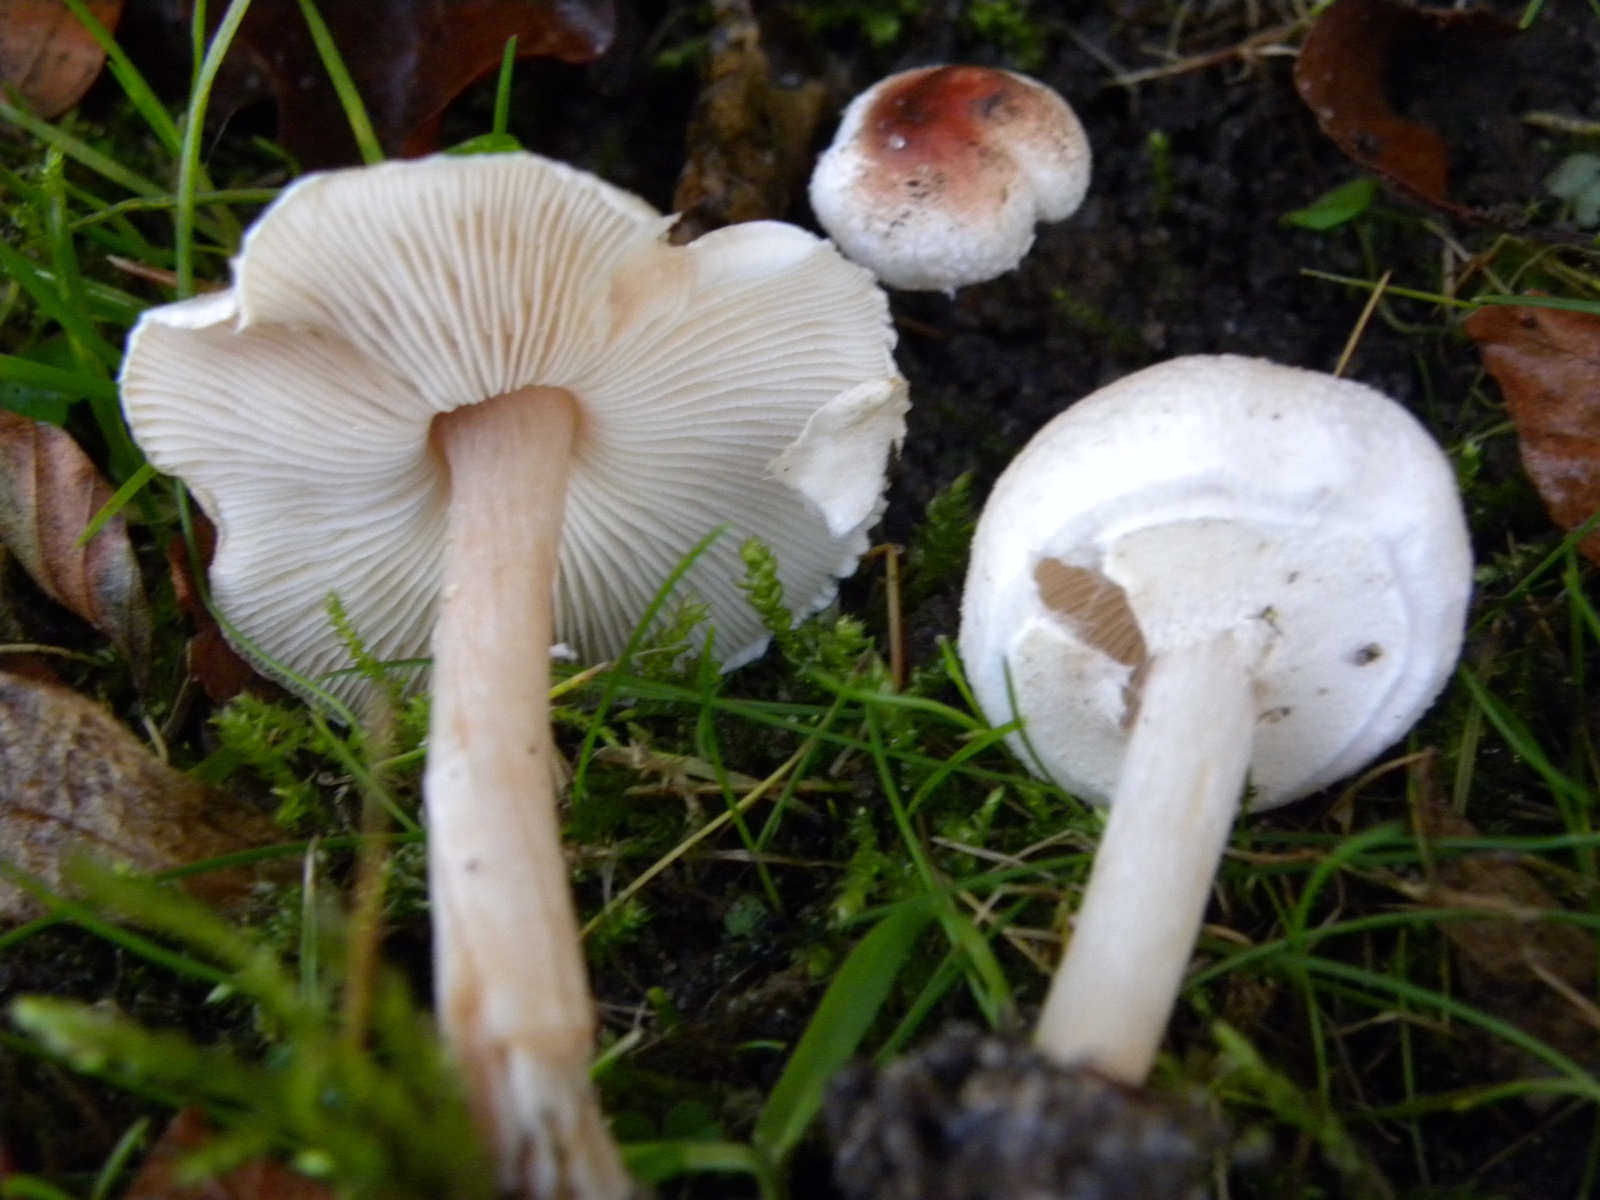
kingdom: Fungi
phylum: Basidiomycota
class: Agaricomycetes
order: Agaricales
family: Agaricaceae
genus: Lepiota
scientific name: Lepiota cristata
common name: stinkende parasolhat
